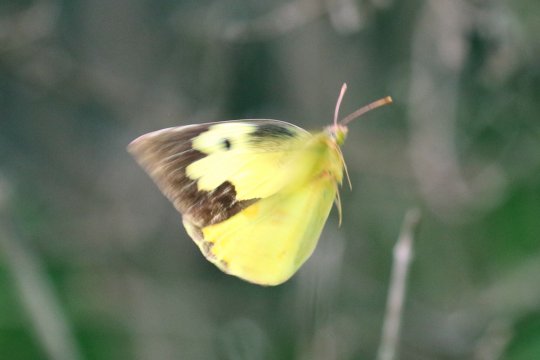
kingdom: Animalia
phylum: Arthropoda
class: Insecta
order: Lepidoptera
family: Pieridae
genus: Zerene
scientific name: Zerene cesonia
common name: Southern Dogface
